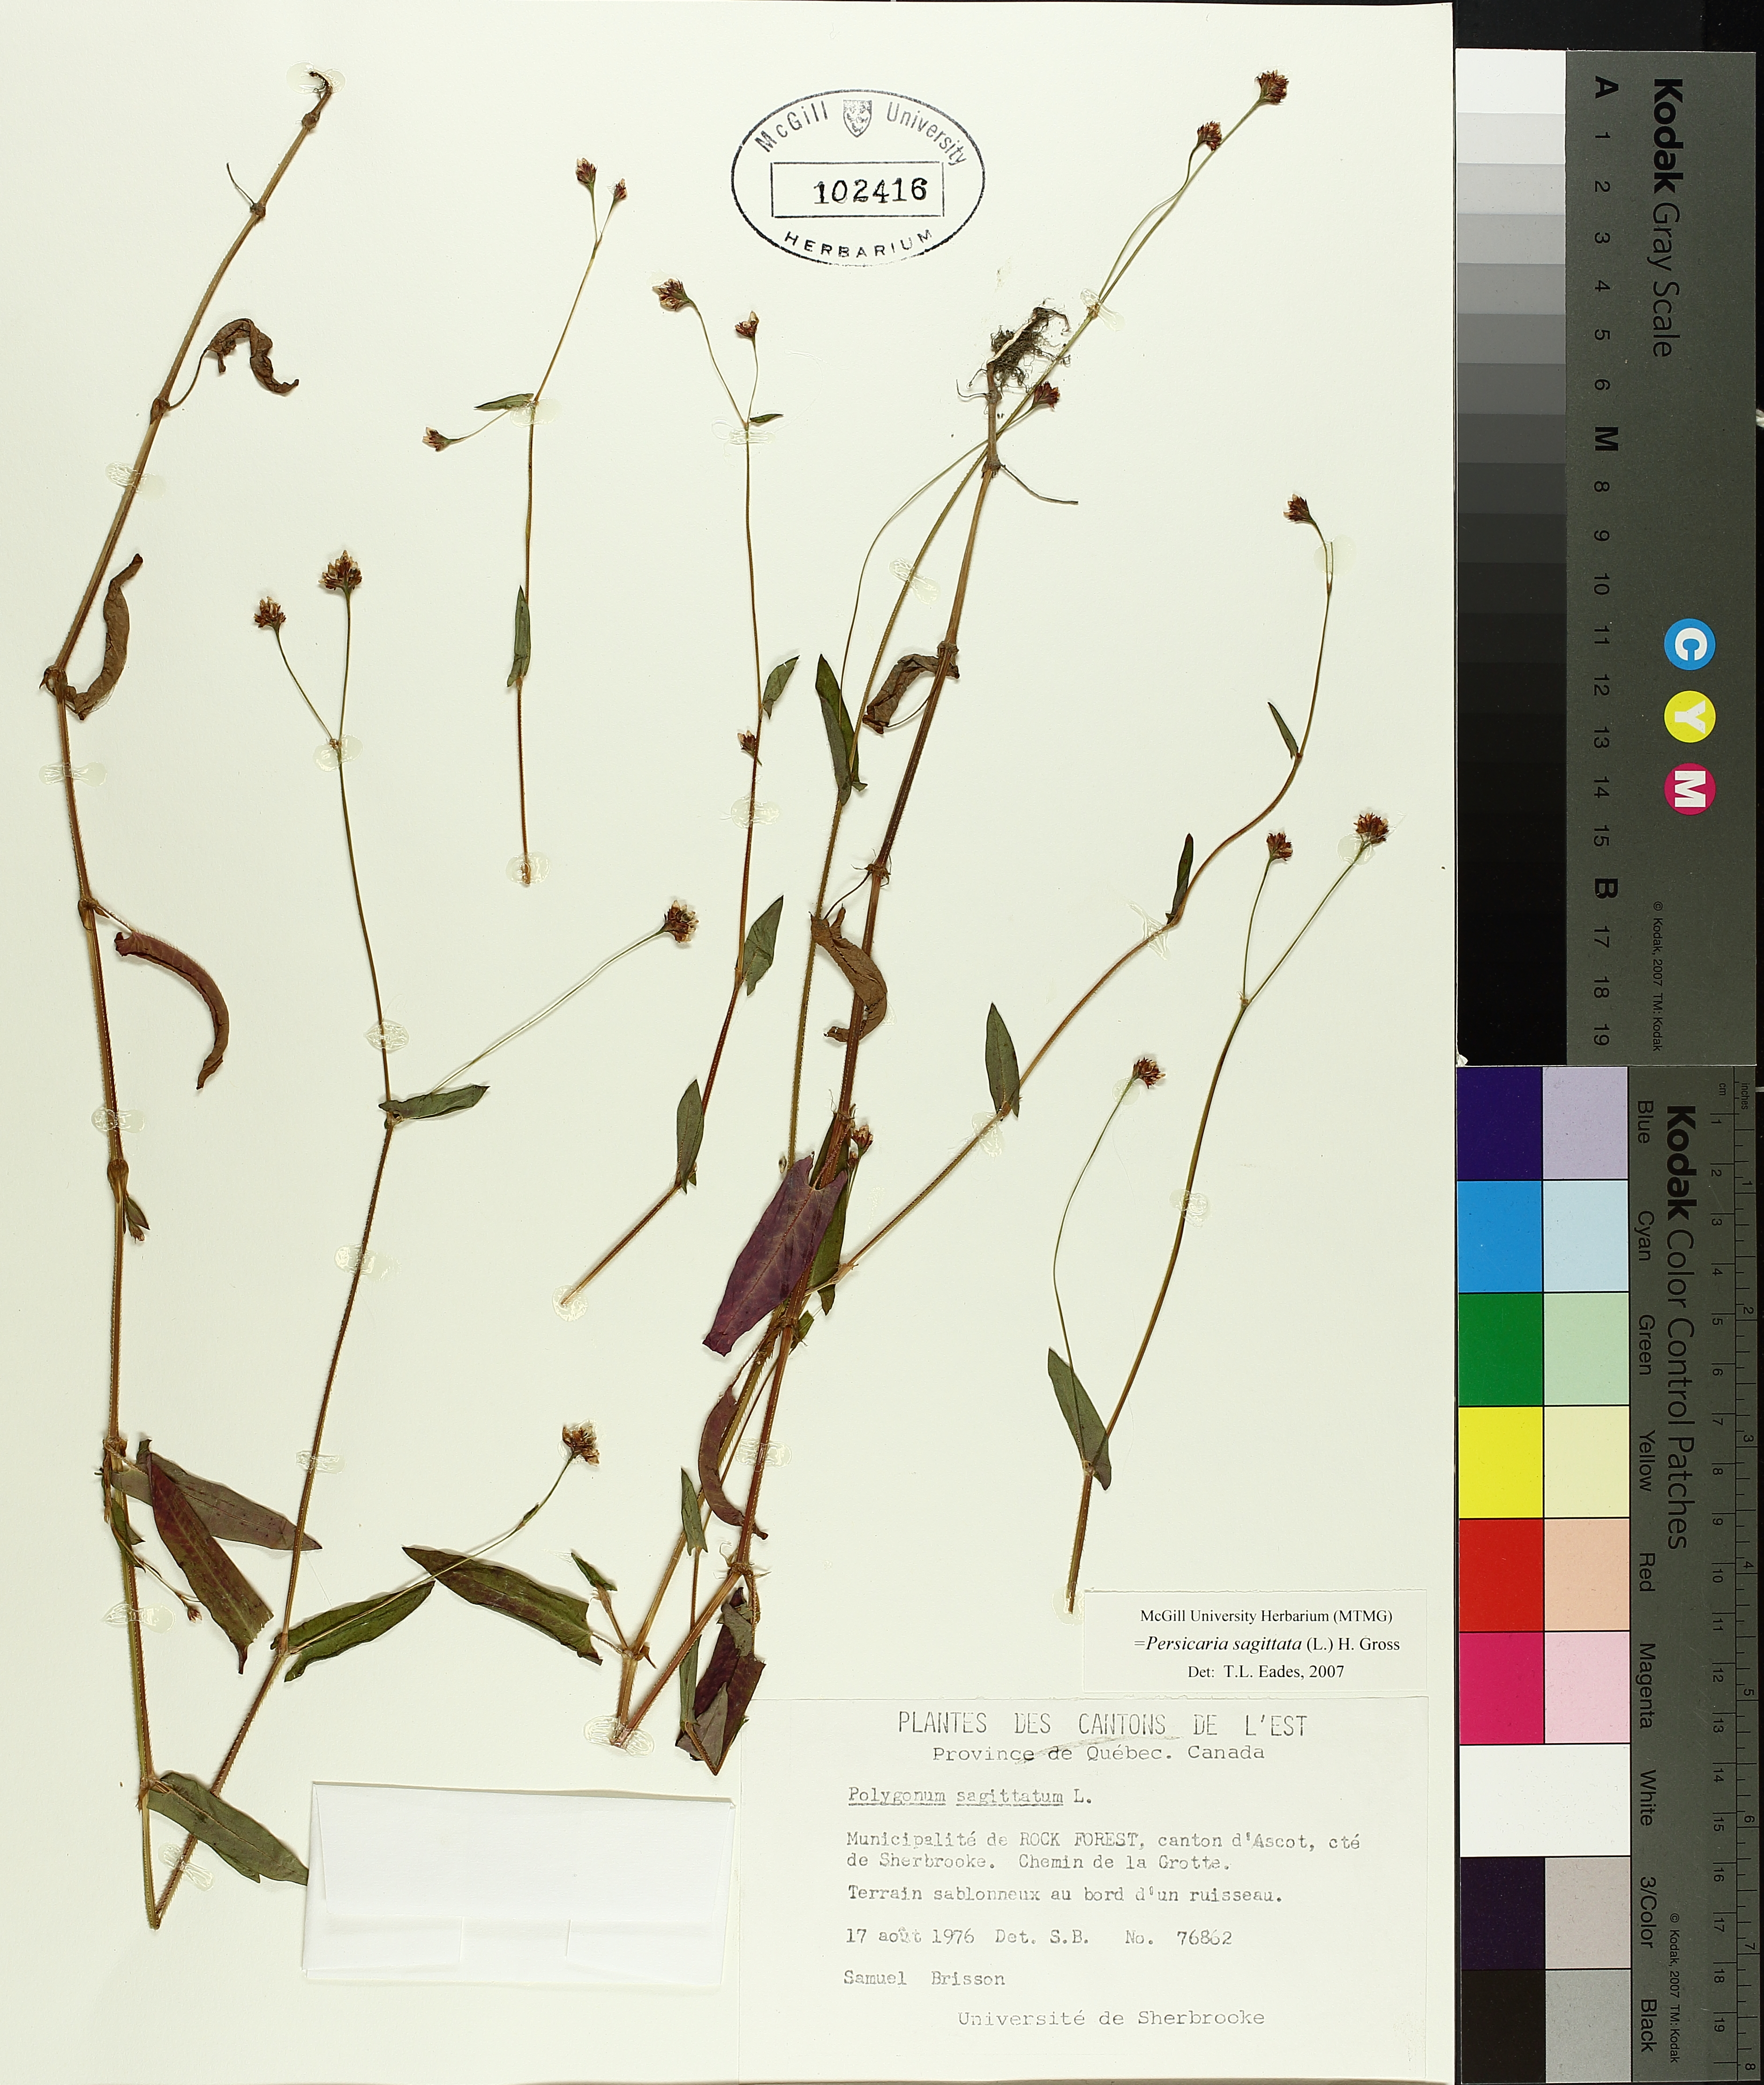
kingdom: Plantae
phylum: Tracheophyta
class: Magnoliopsida
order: Caryophyllales
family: Polygonaceae
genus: Persicaria
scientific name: Persicaria sagittata
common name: American tearthumb
